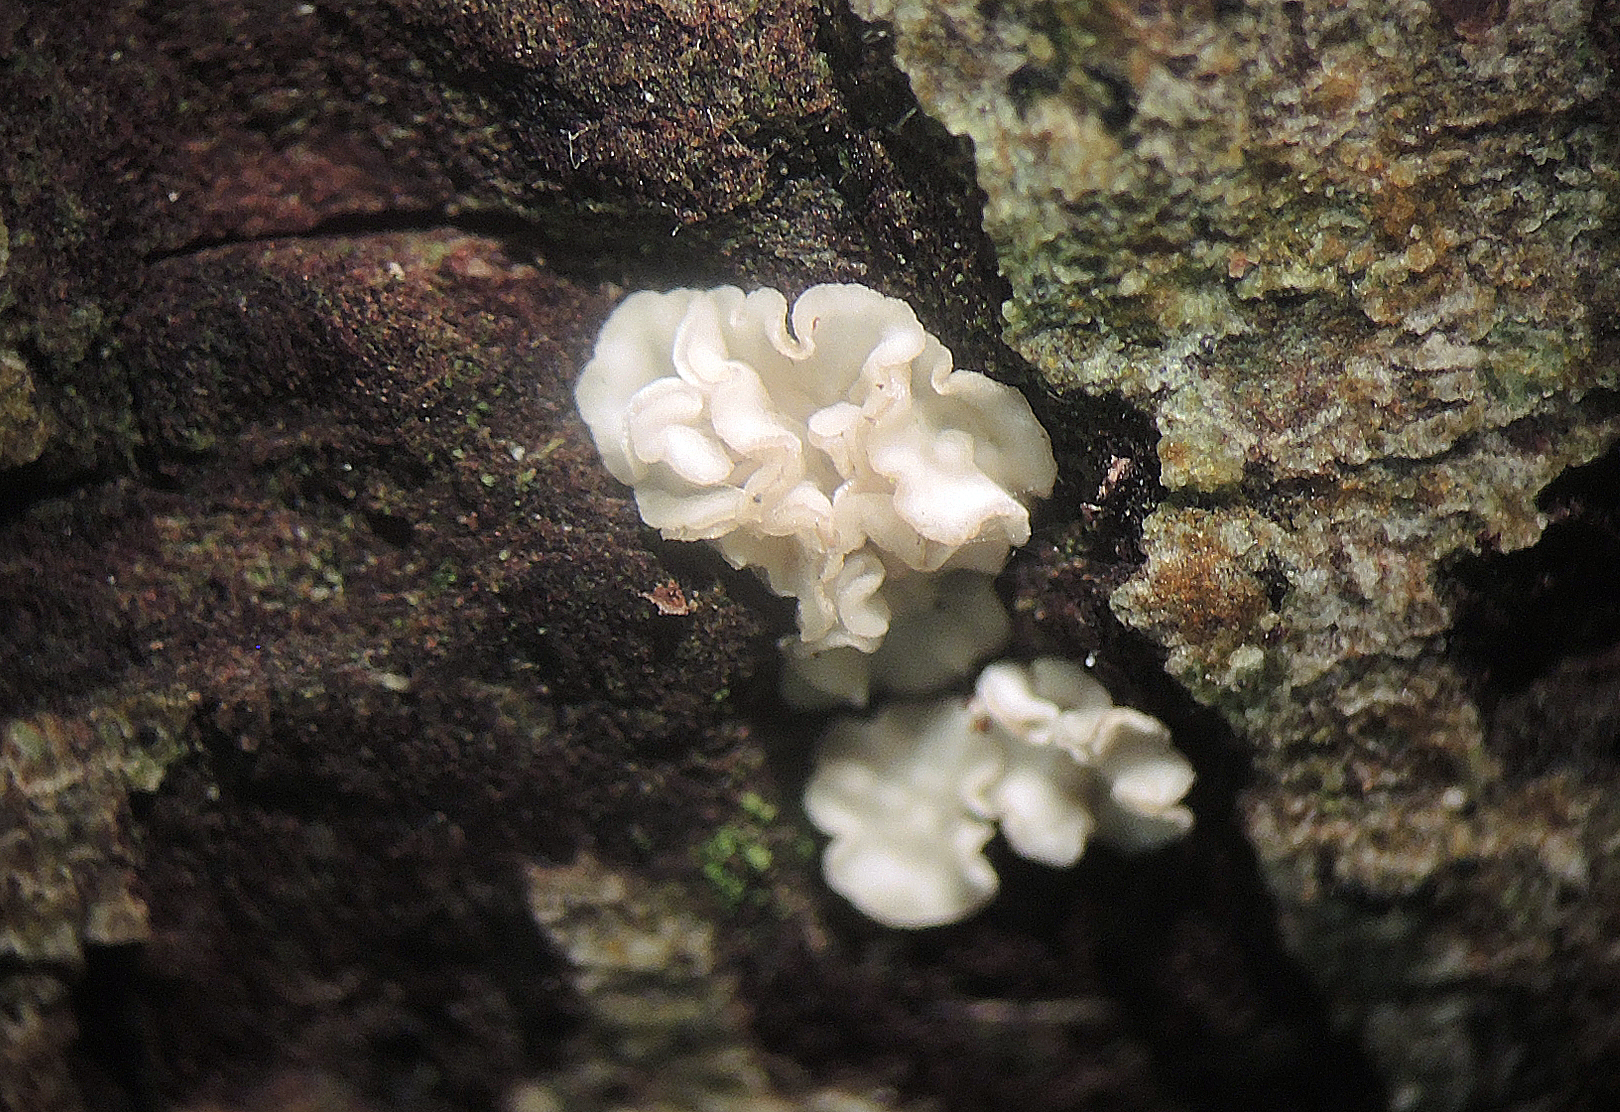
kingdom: Fungi
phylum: Ascomycota
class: Leotiomycetes
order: Helotiales
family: Pezizellaceae
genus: Calycina
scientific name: Calycina vulgaris
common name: pølsesporet gulskive
